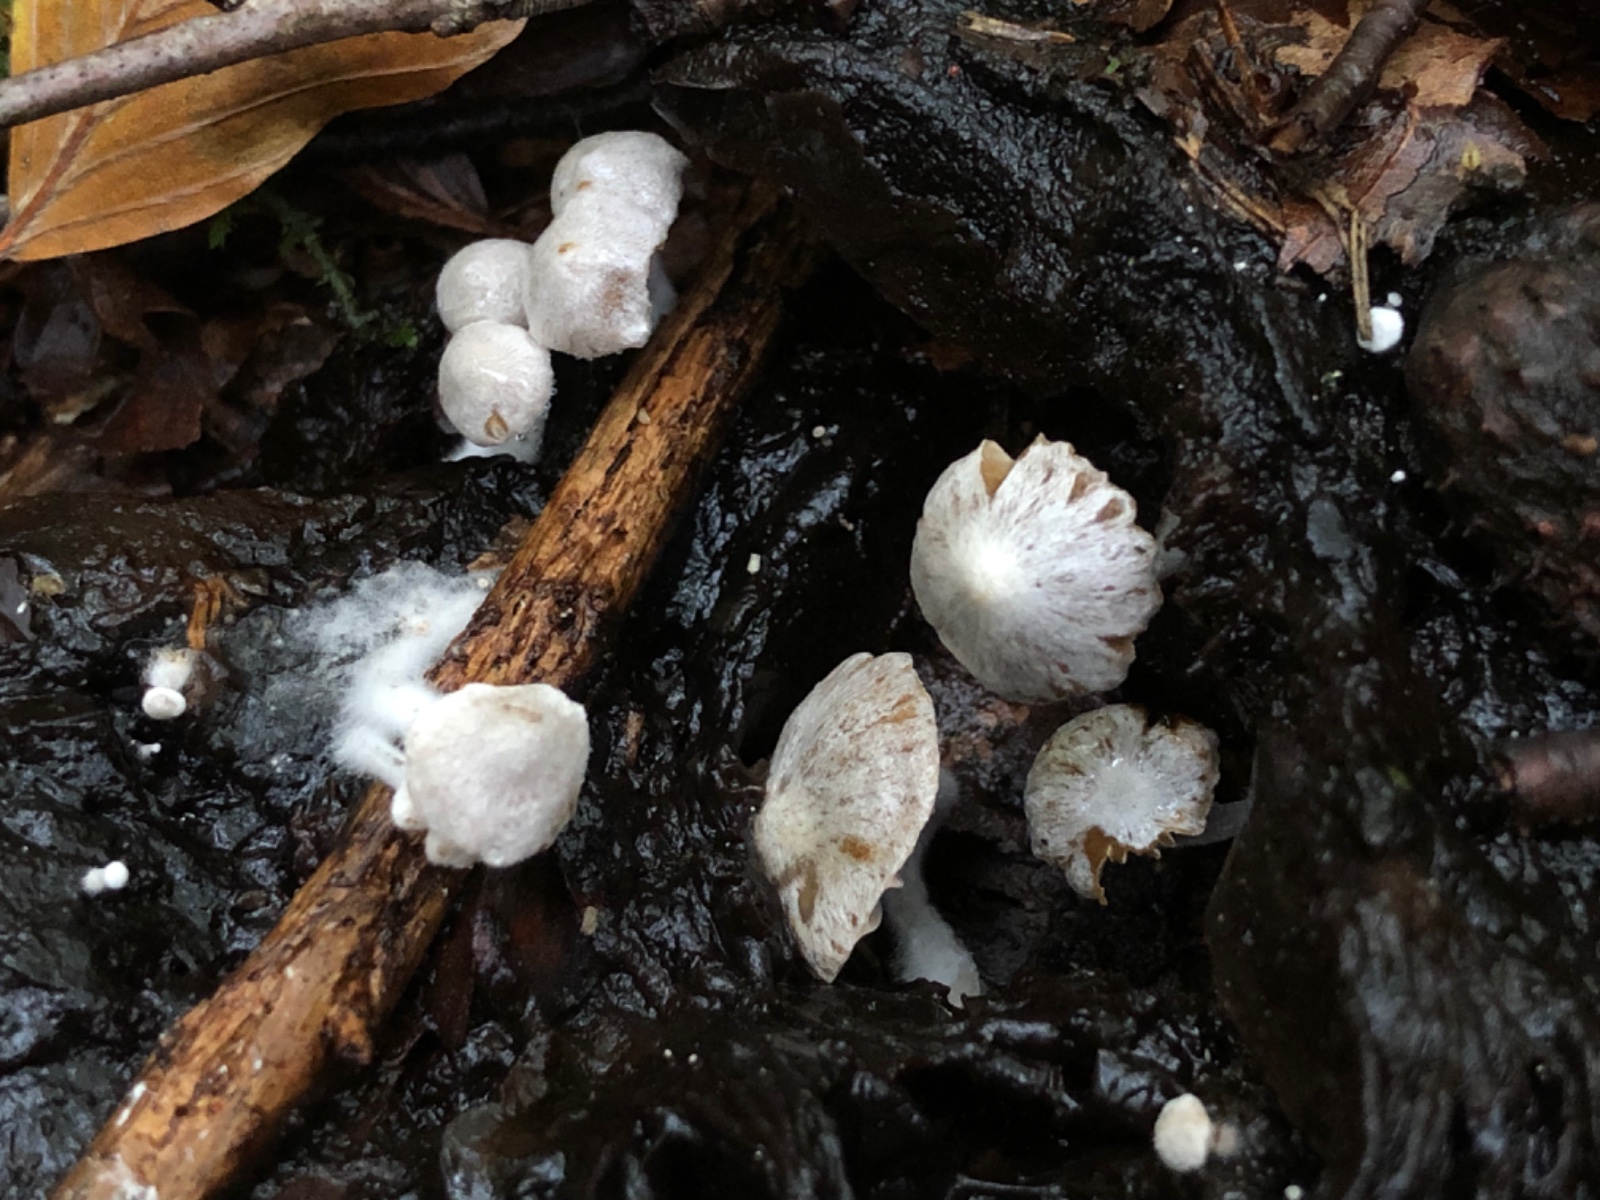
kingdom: Fungi
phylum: Basidiomycota
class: Agaricomycetes
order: Agaricales
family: Lyophyllaceae
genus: Asterophora
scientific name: Asterophora parasitica
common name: grå snyltehat
